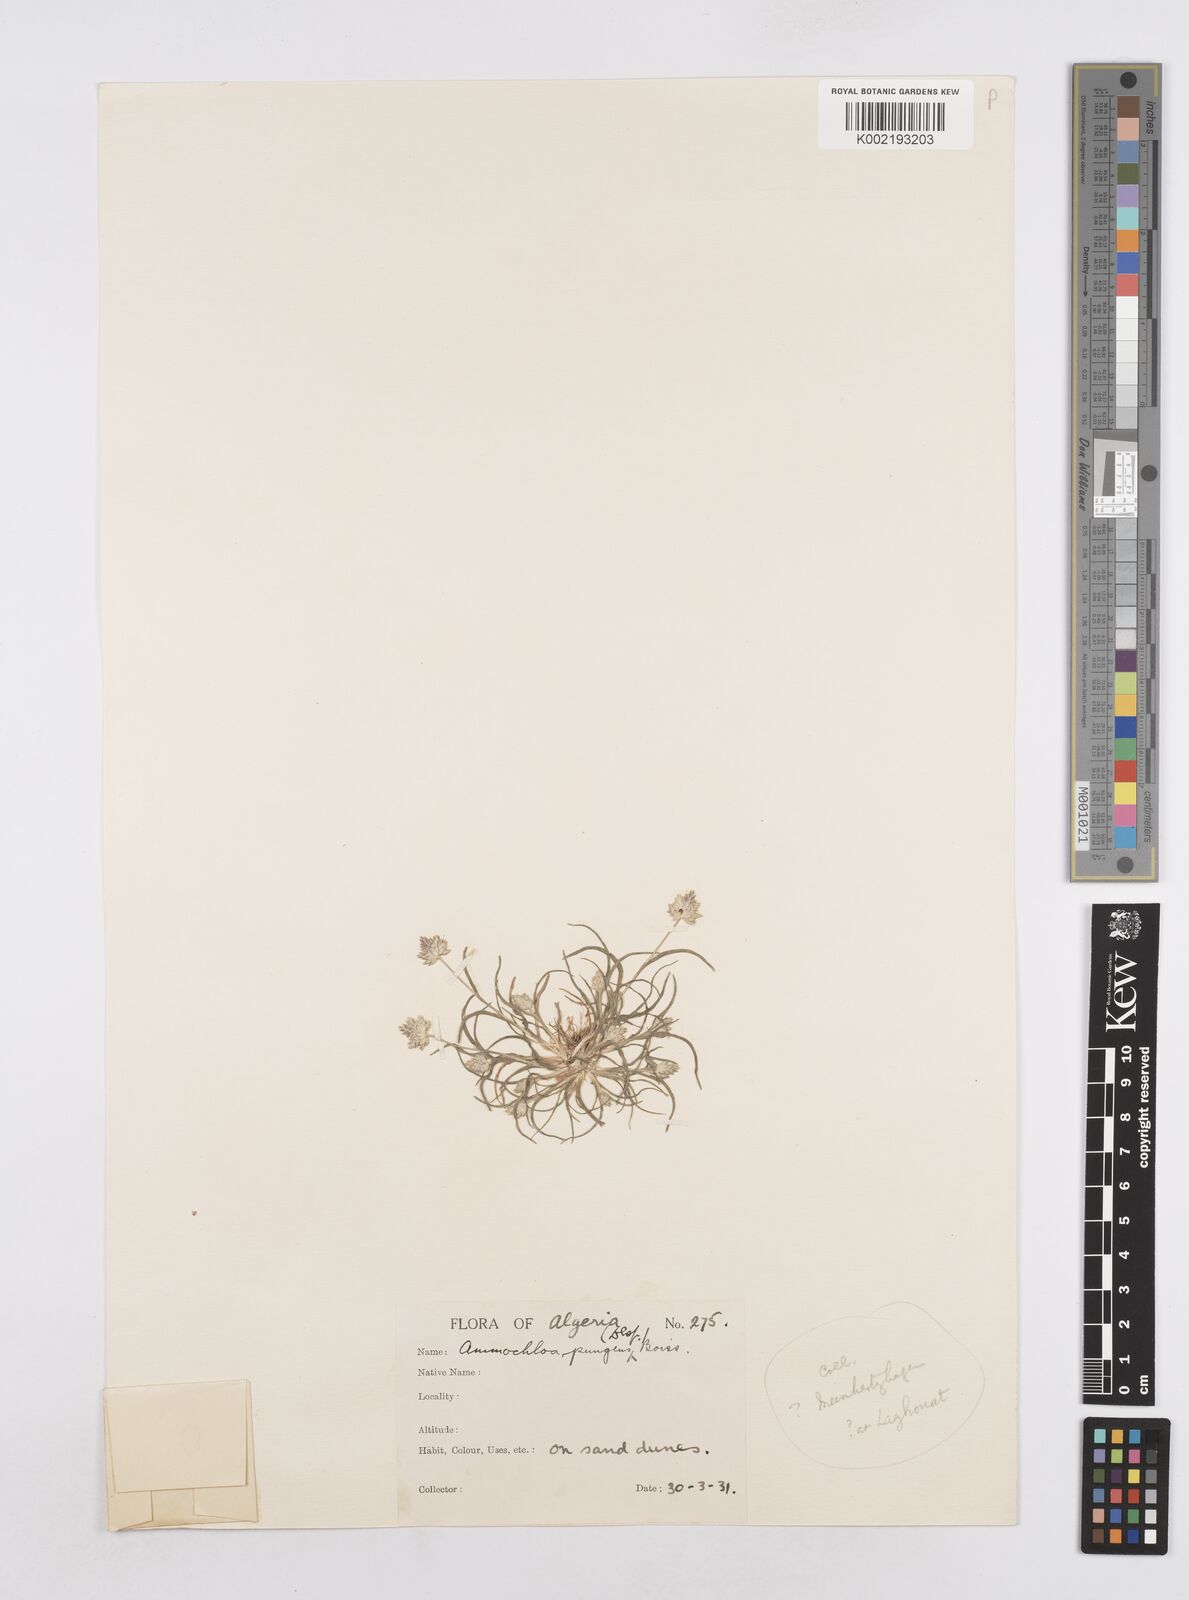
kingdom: Plantae
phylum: Tracheophyta
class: Liliopsida
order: Poales
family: Poaceae
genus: Ammochloa
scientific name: Ammochloa pungens
